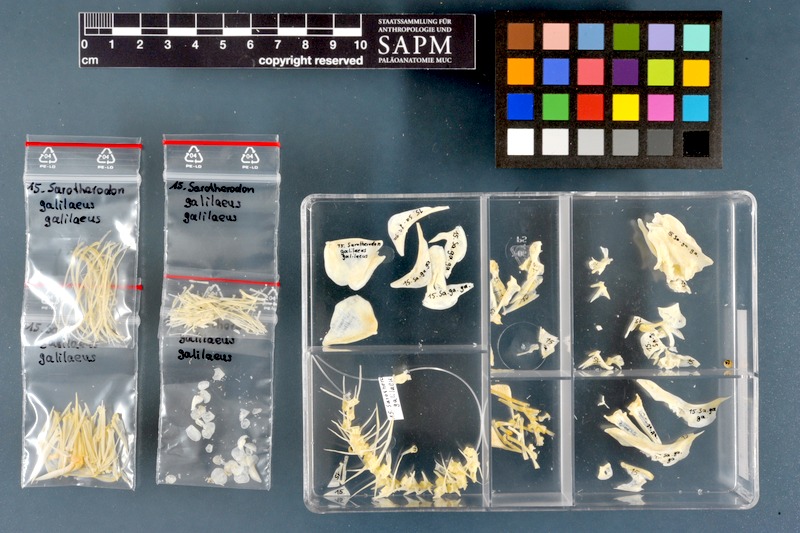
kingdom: Animalia
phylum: Chordata
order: Perciformes
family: Cichlidae
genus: Sarotherodon
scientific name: Sarotherodon galilaeus
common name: Mango tilapia
